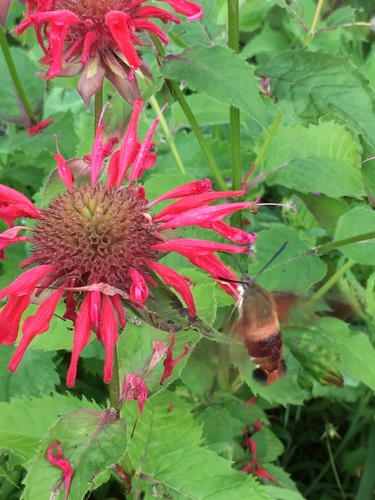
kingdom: Animalia
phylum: Arthropoda
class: Insecta
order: Lepidoptera
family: Sphingidae
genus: Hemaris
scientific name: Hemaris thysbe
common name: Common clear-wing
